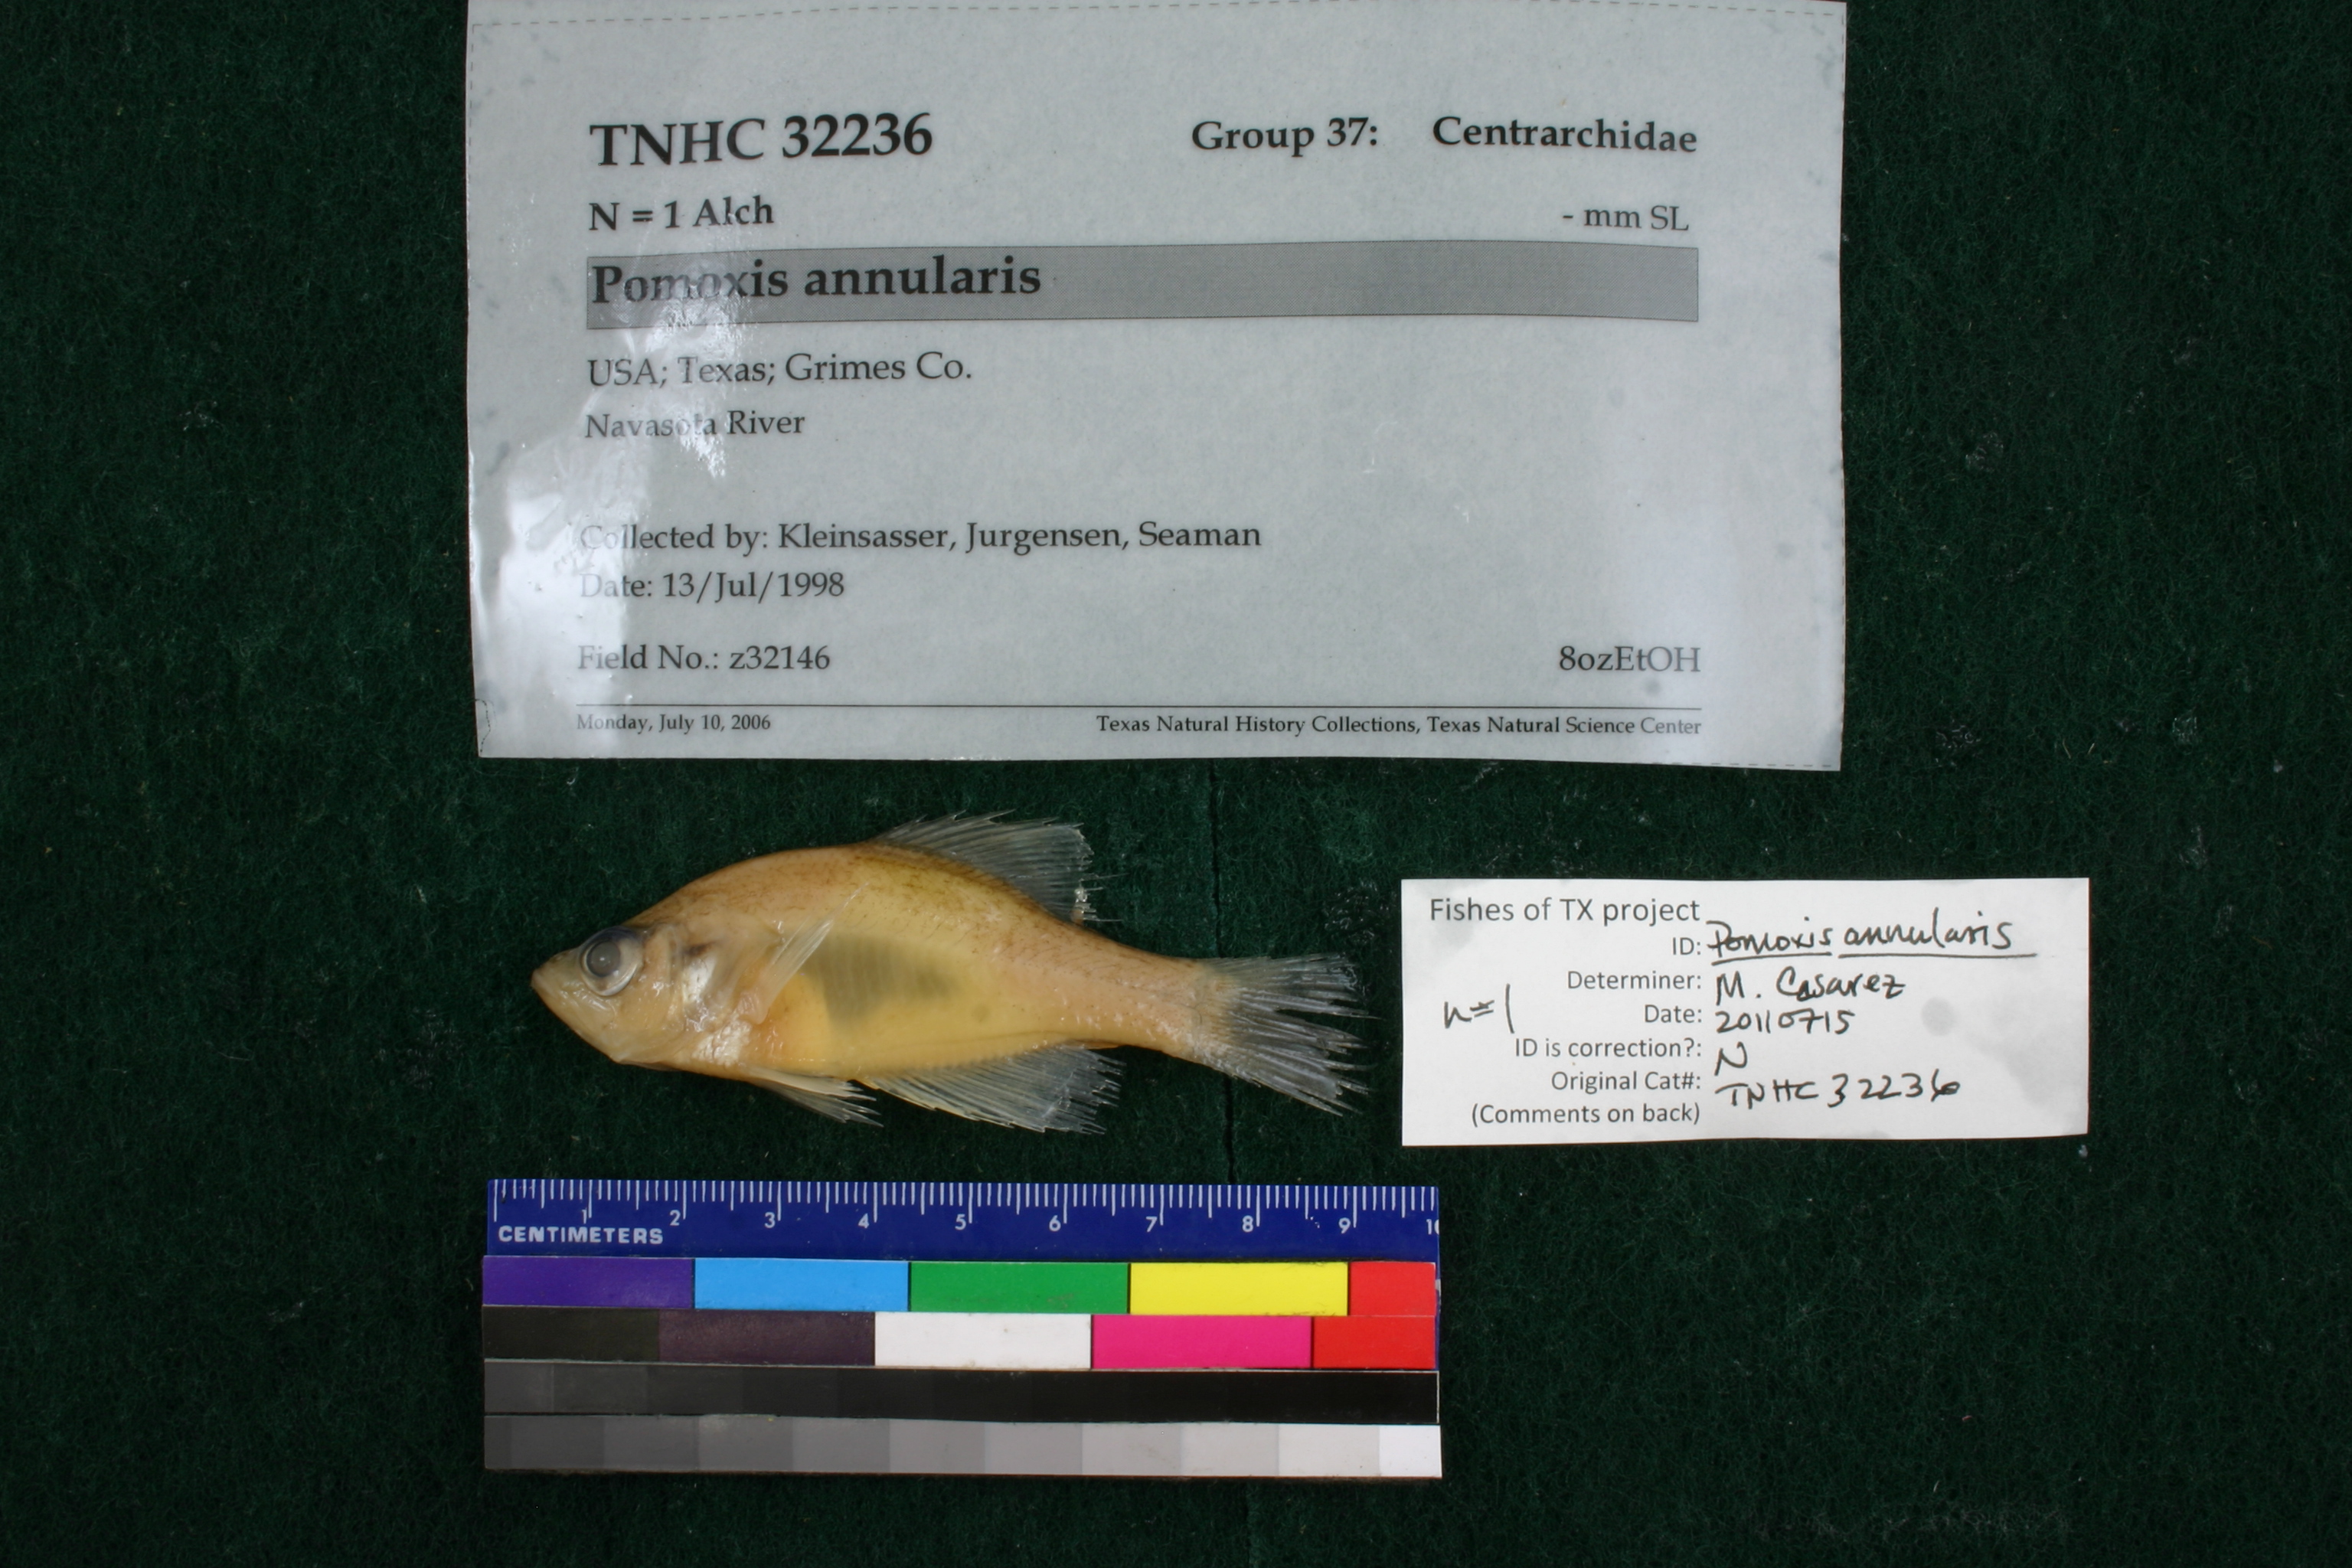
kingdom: Animalia
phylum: Chordata
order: Perciformes
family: Centrarchidae
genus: Pomoxis
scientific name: Pomoxis annularis
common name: White crappie
